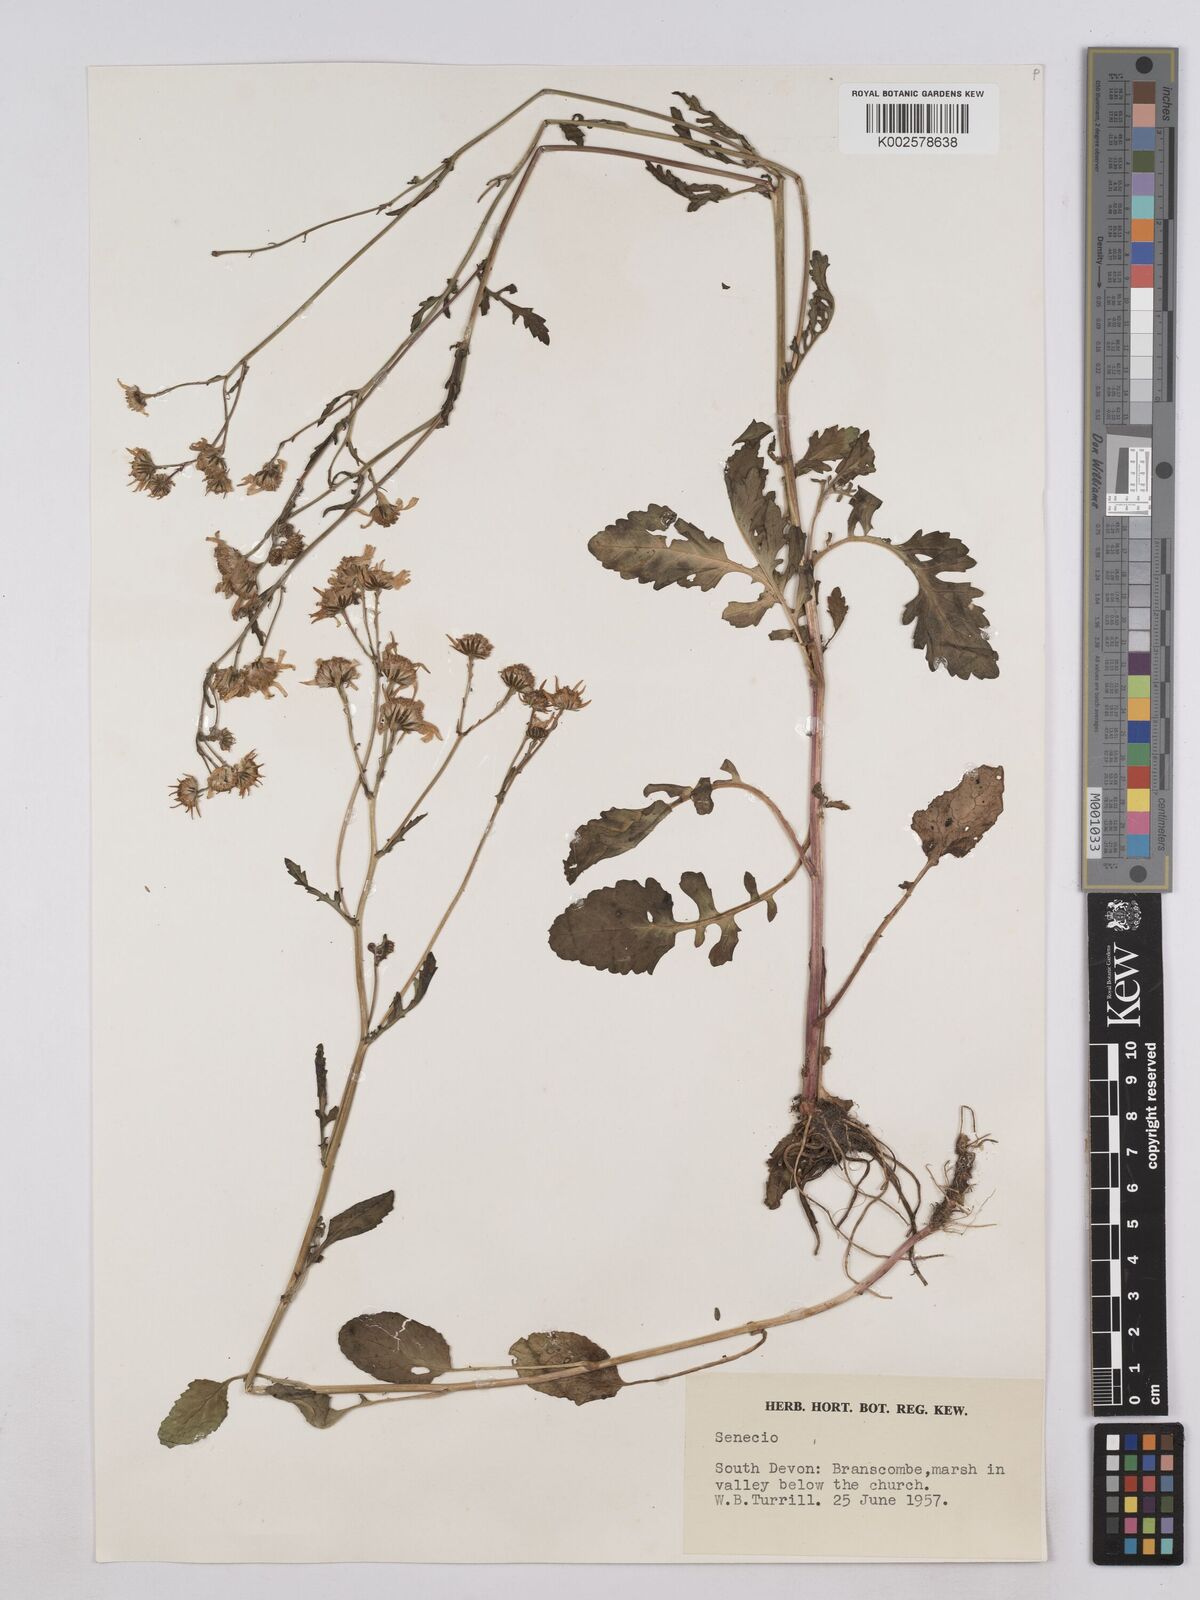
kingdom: Plantae
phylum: Tracheophyta
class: Magnoliopsida
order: Asterales
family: Asteraceae
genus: Jacobaea
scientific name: Jacobaea aquatica
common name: Water ragwort
